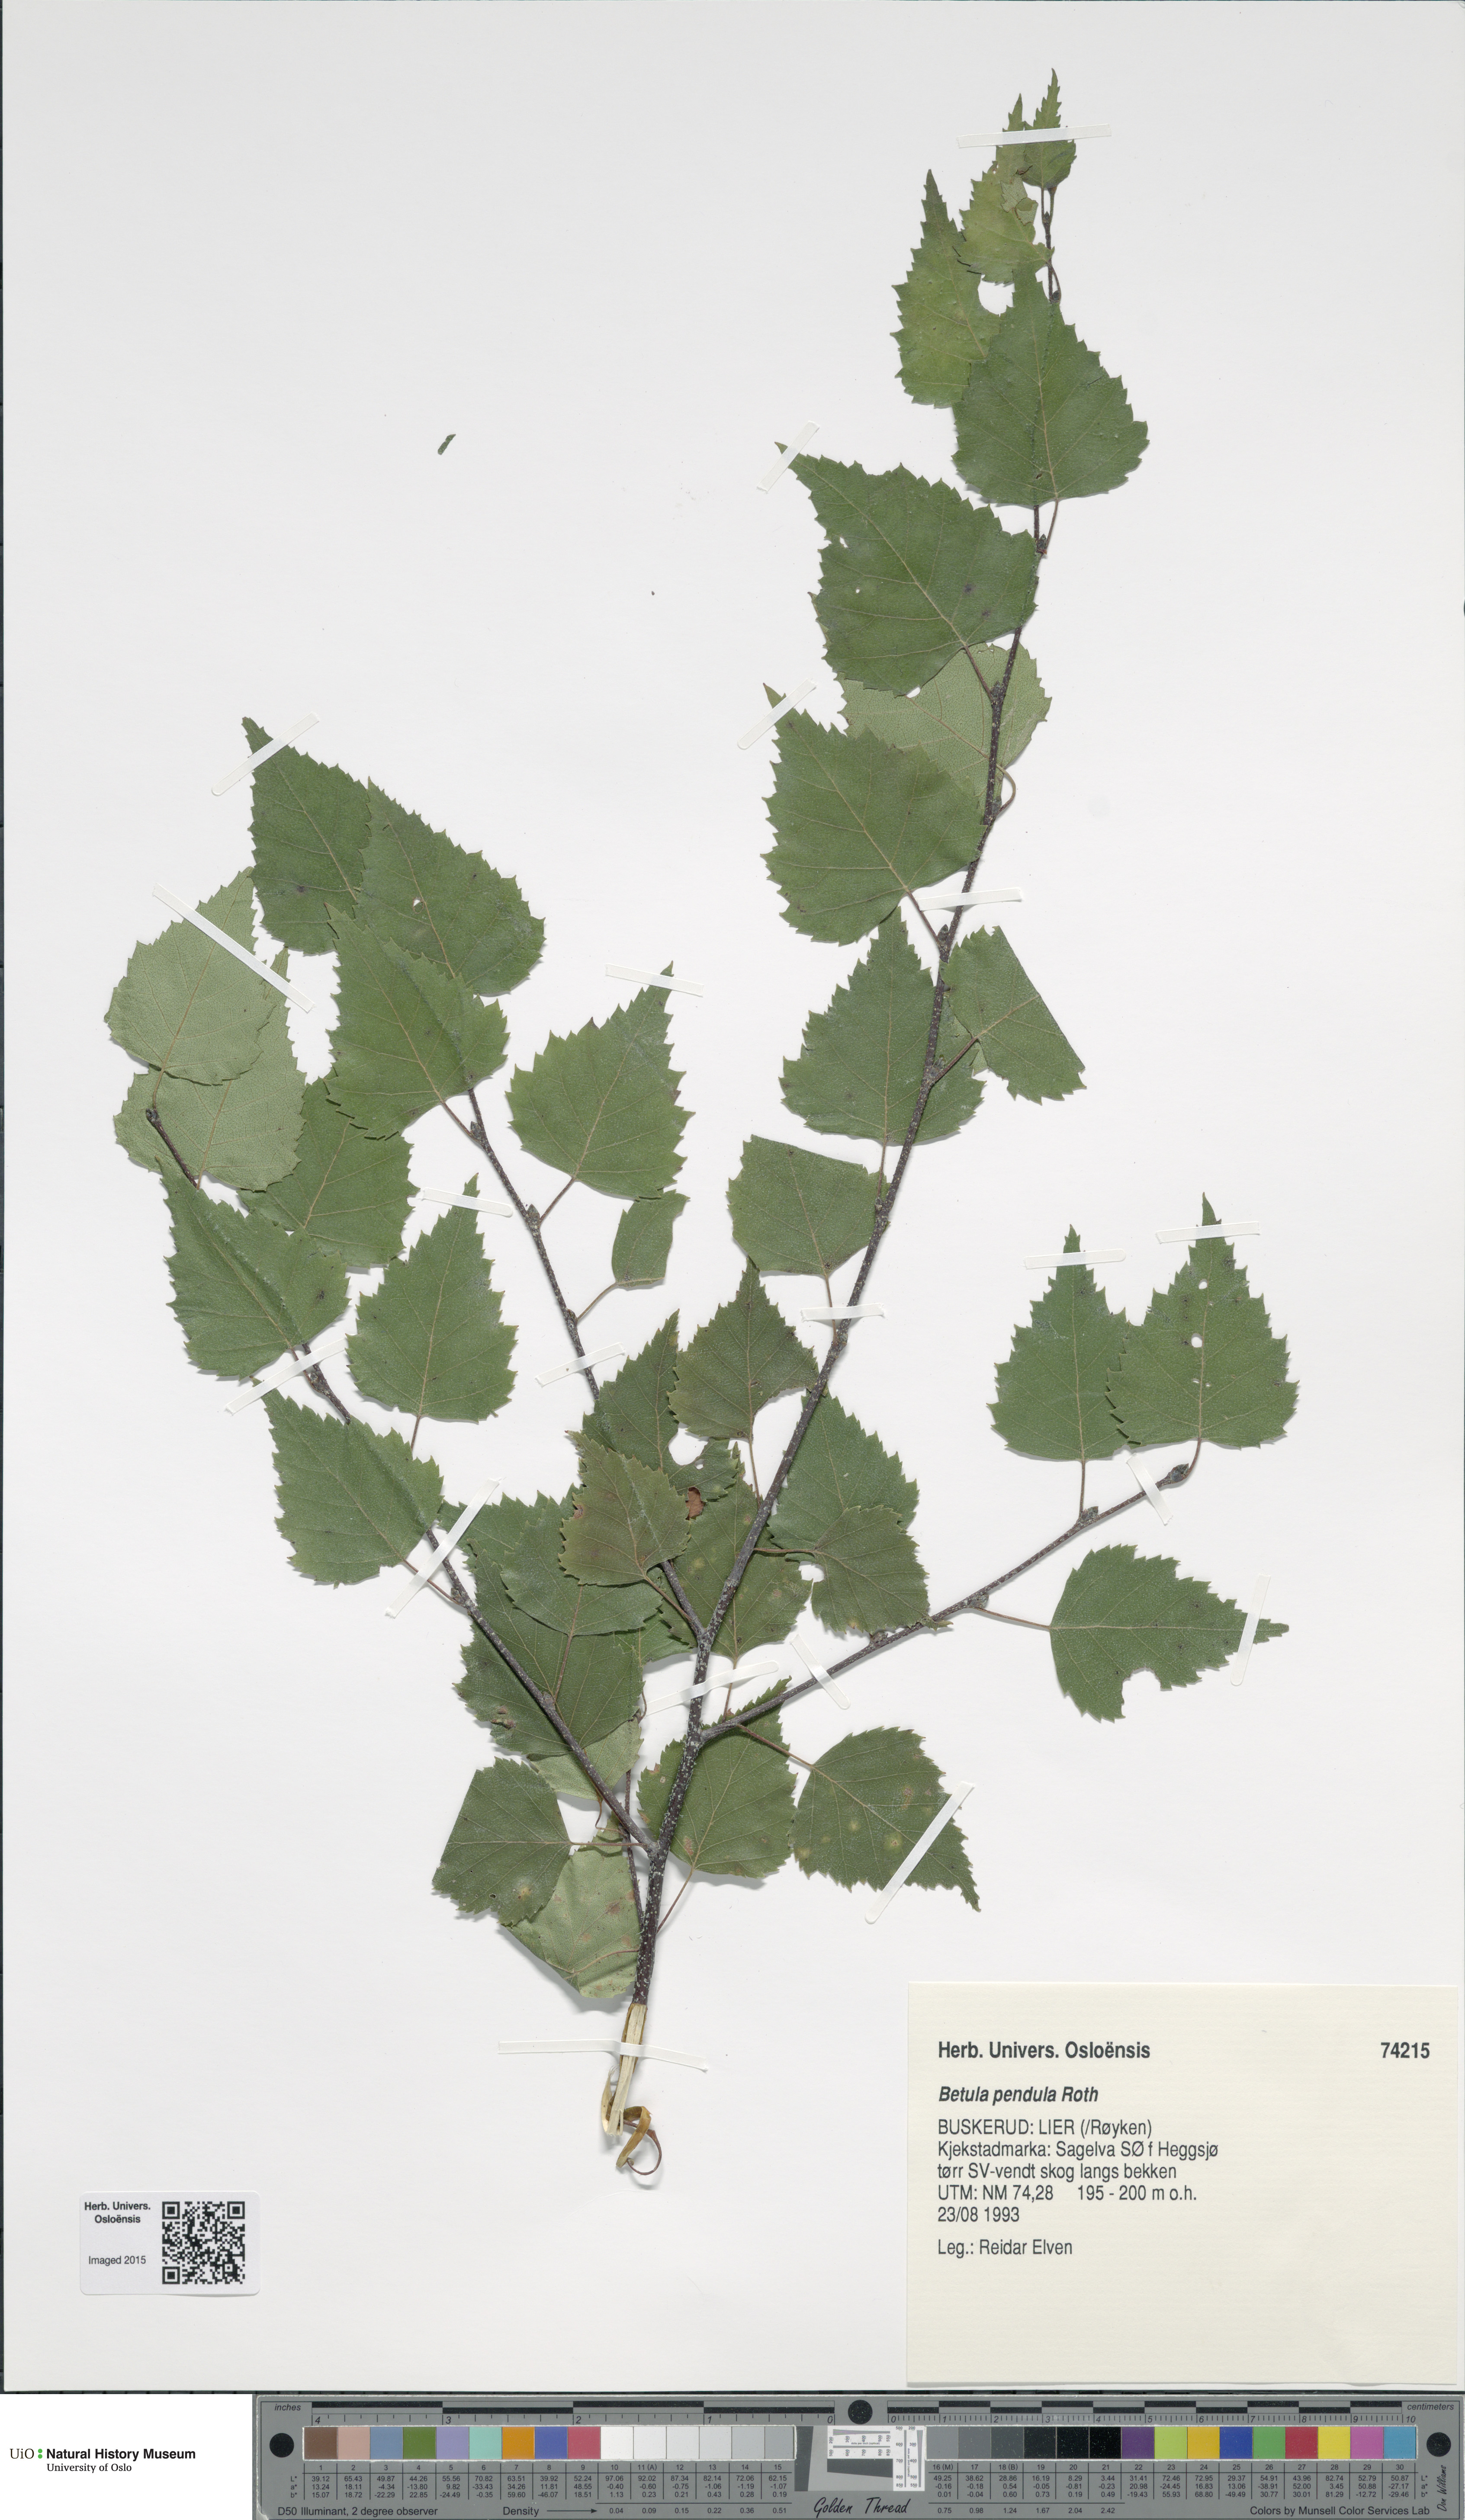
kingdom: Plantae
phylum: Tracheophyta
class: Magnoliopsida
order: Fagales
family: Betulaceae
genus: Betula
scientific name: Betula pendula
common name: Silver birch
